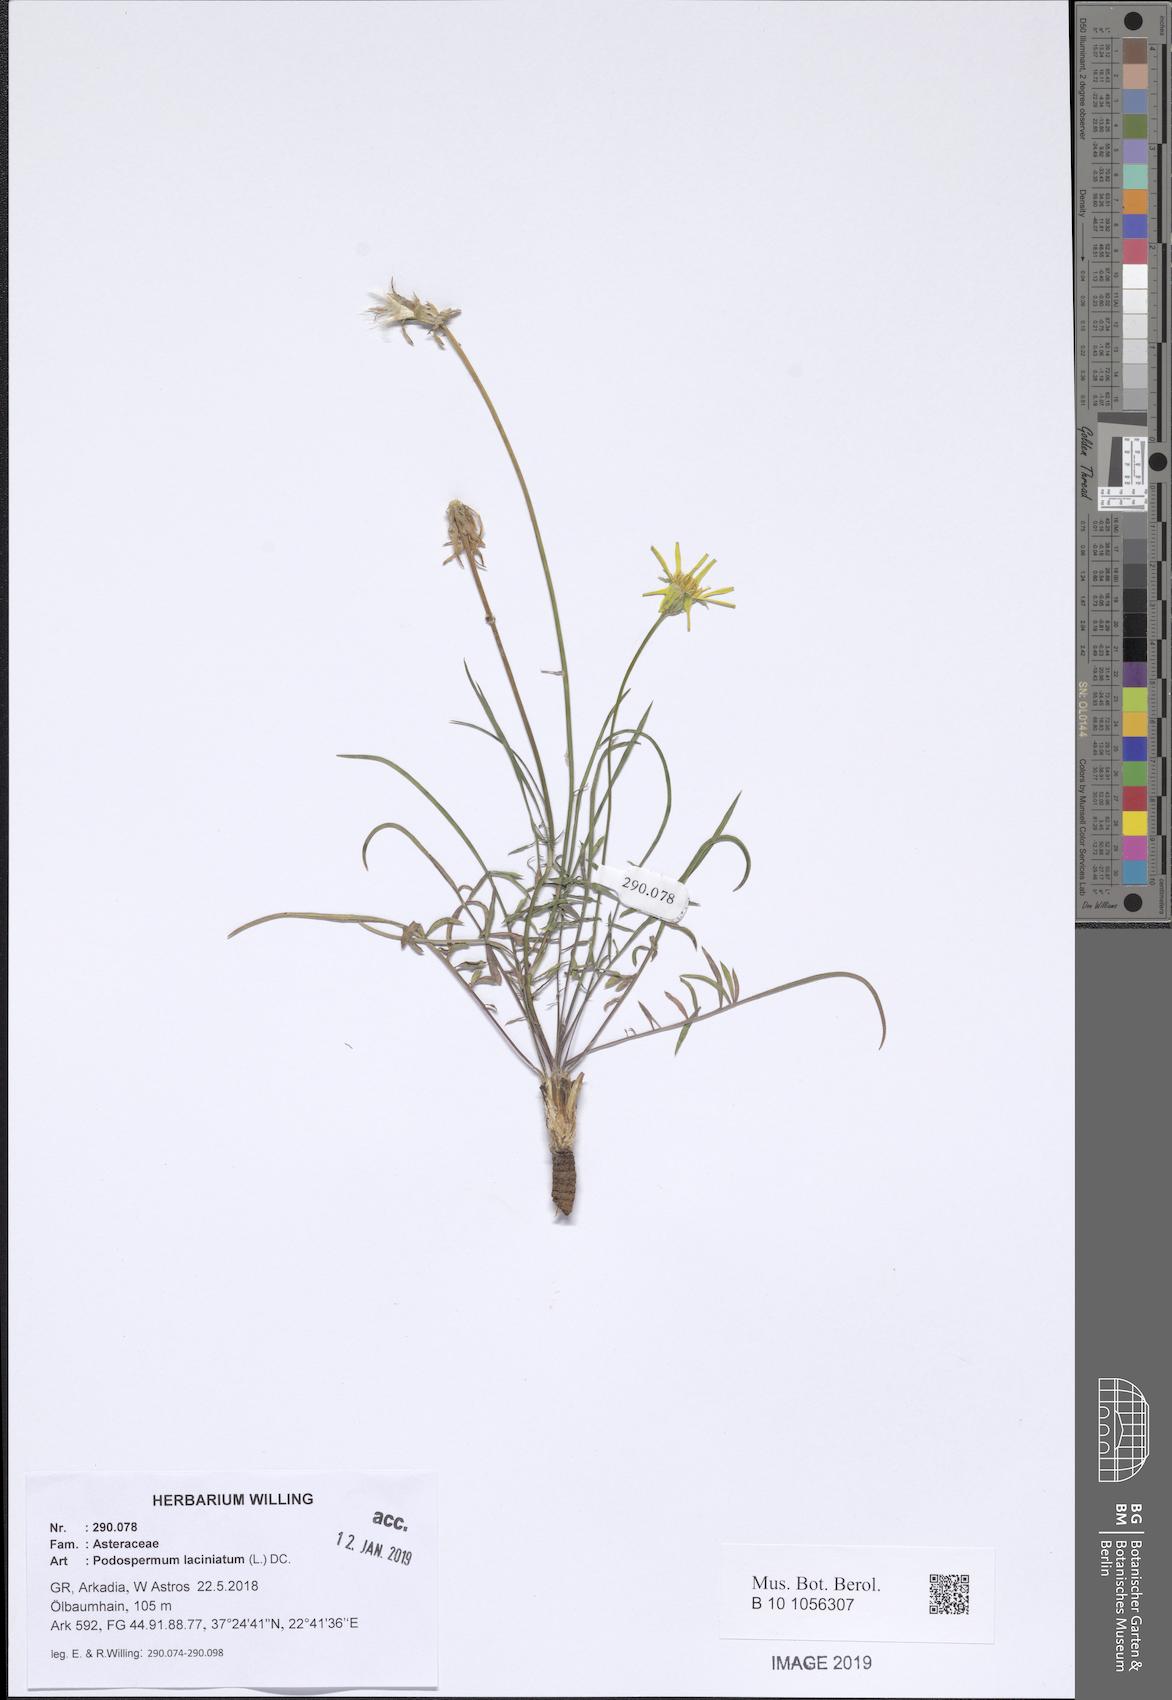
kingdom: Plantae
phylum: Tracheophyta
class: Magnoliopsida
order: Asterales
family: Asteraceae
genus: Scorzonera
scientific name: Scorzonera laciniata
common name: Cutleaf vipergrass
